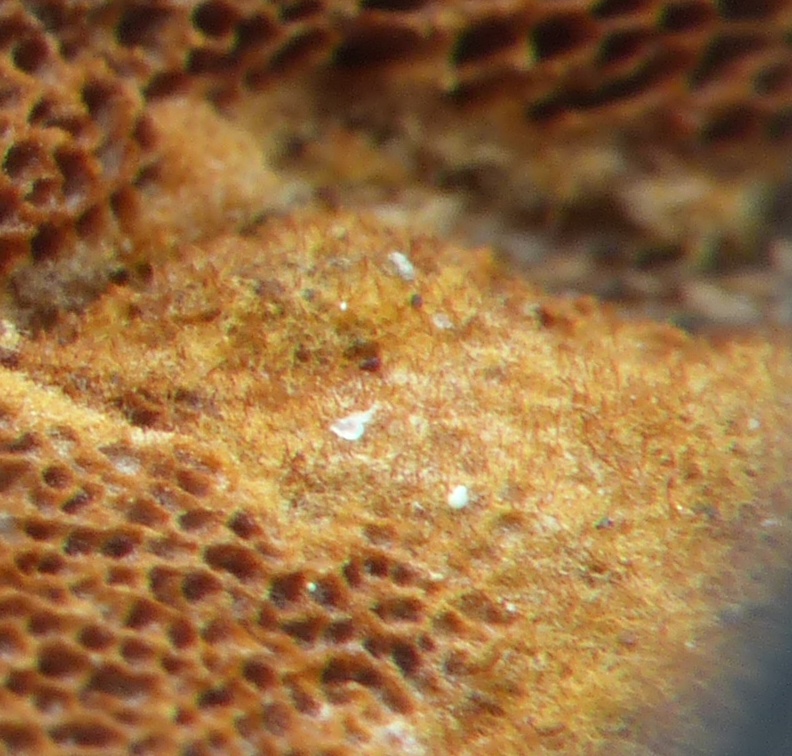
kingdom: Fungi
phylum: Basidiomycota
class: Agaricomycetes
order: Hymenochaetales
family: Hymenochaetaceae
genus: Fuscoporia
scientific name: Fuscoporia ferrea
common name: skorpe-ildporesvamp
